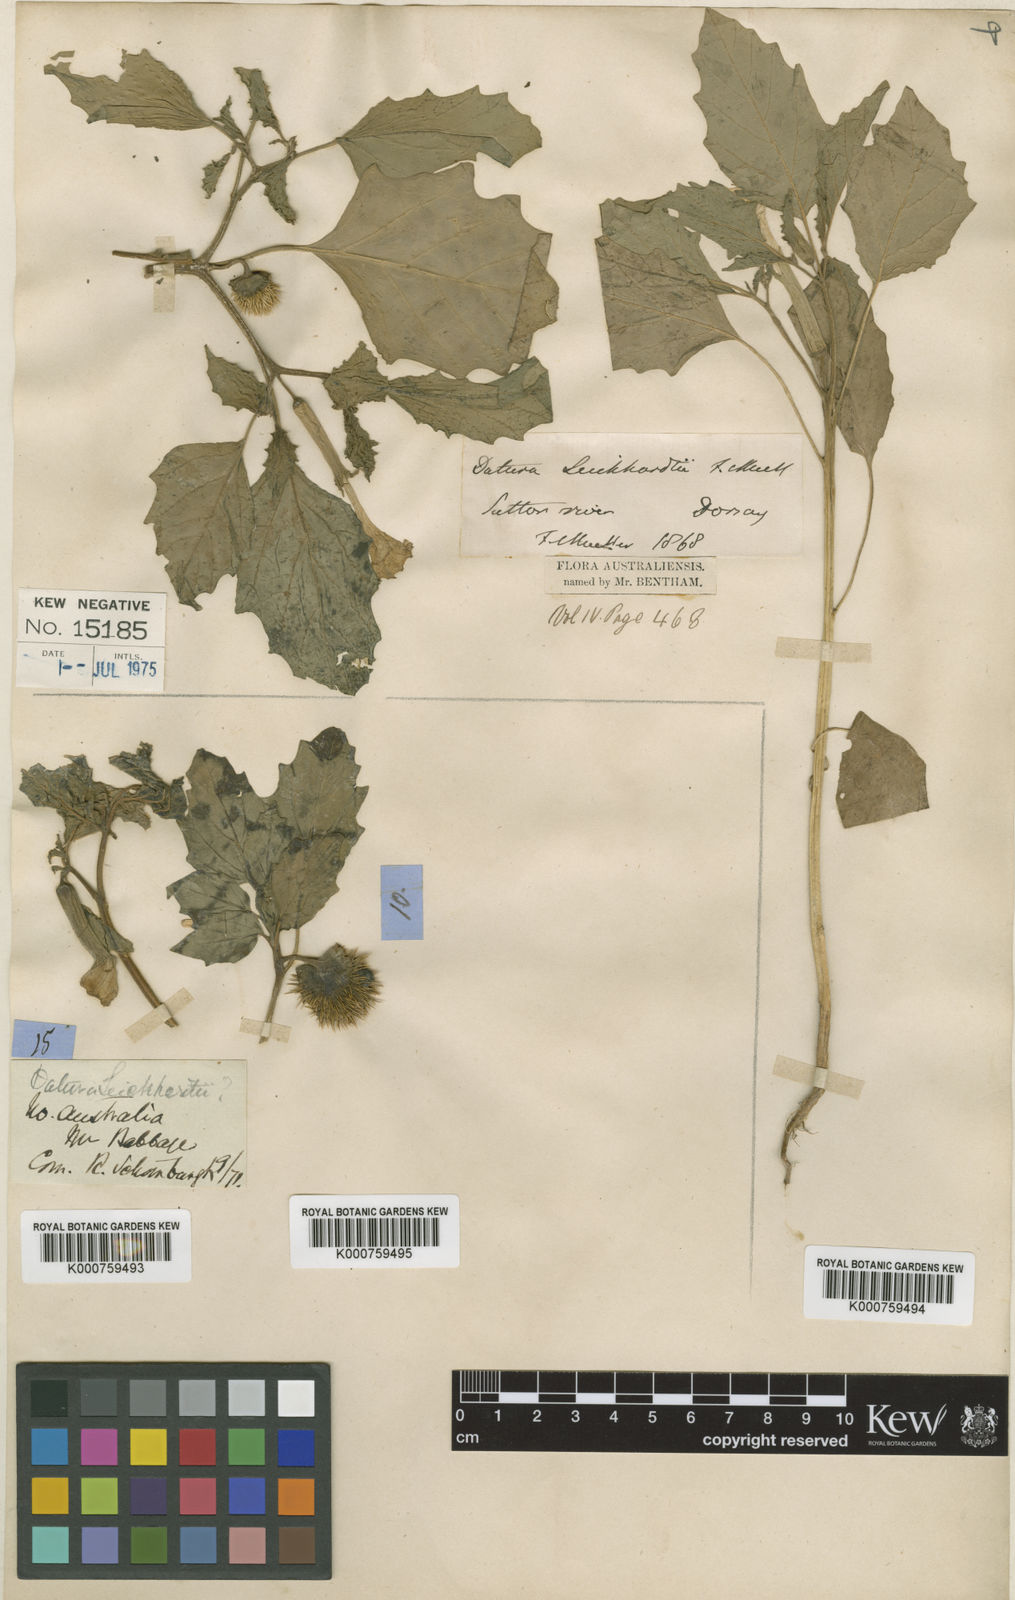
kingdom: Plantae
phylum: Tracheophyta
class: Magnoliopsida
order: Solanales
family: Solanaceae
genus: Datura
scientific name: Datura leichhardtii
